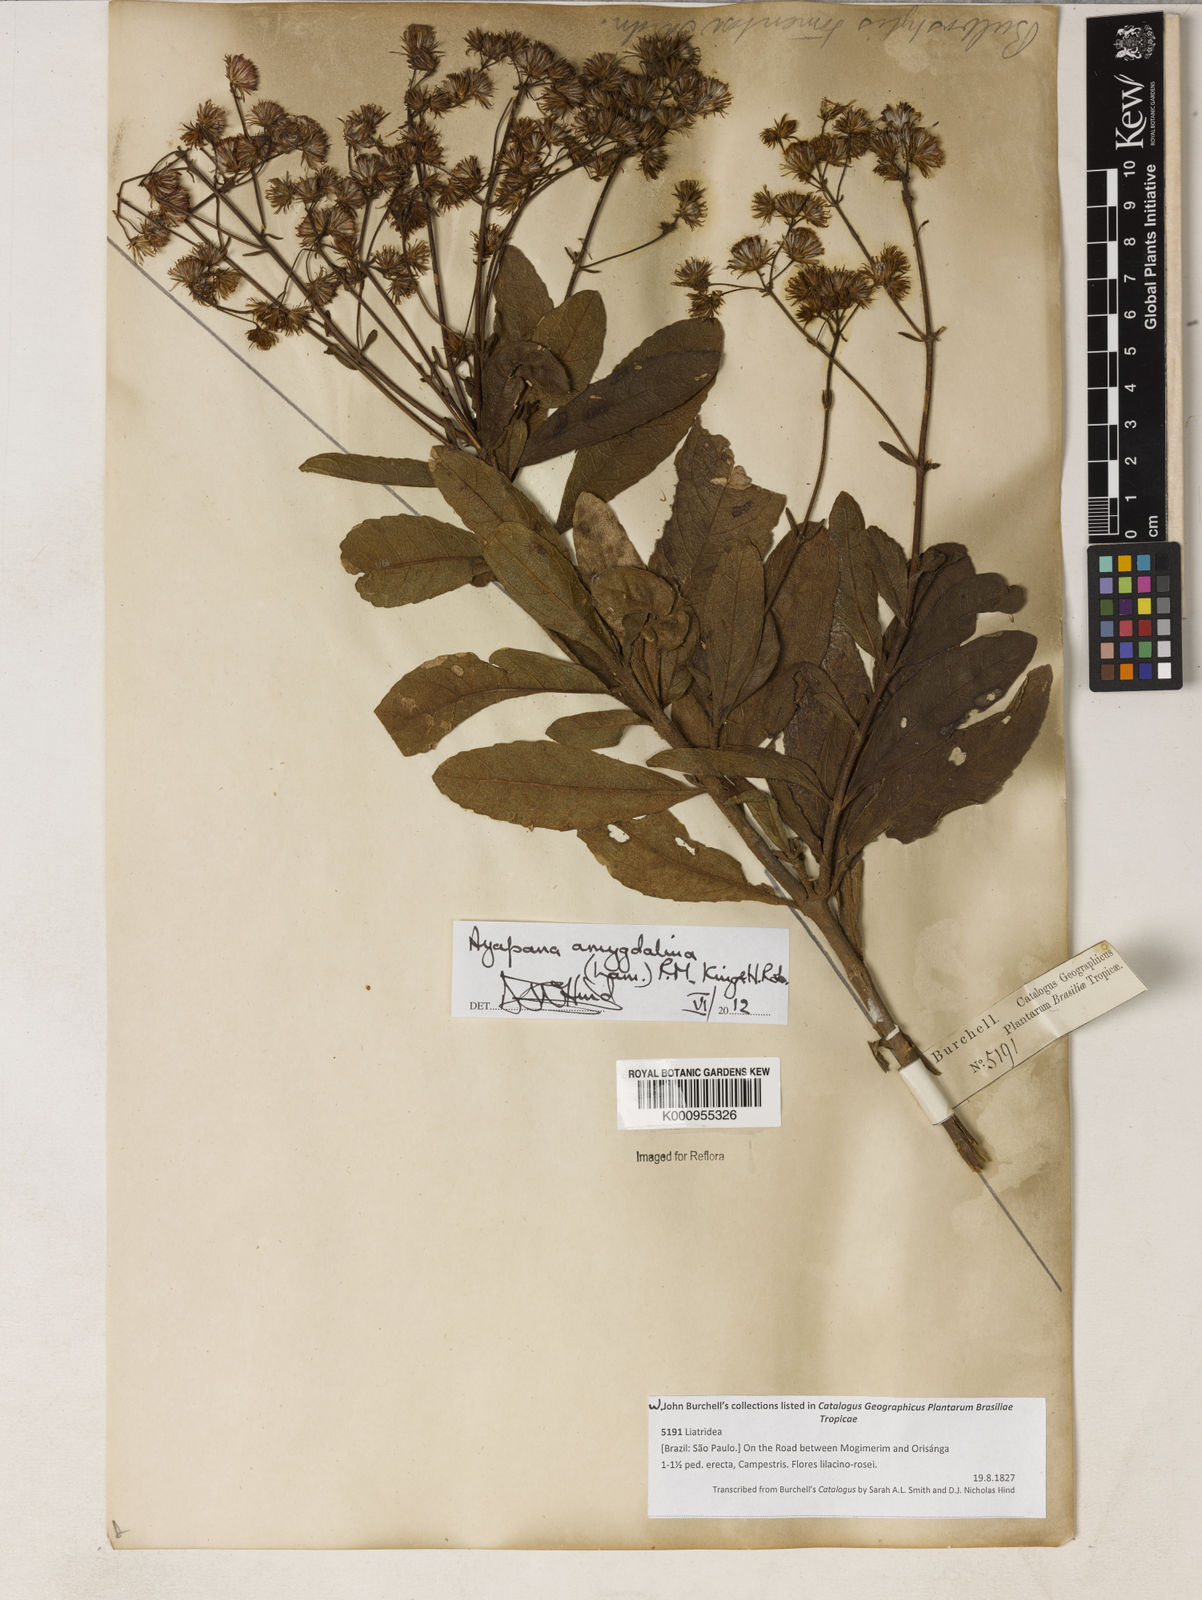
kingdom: Plantae
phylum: Tracheophyta
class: Magnoliopsida
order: Asterales
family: Asteraceae
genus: Ayapana
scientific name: Ayapana amygdalina
